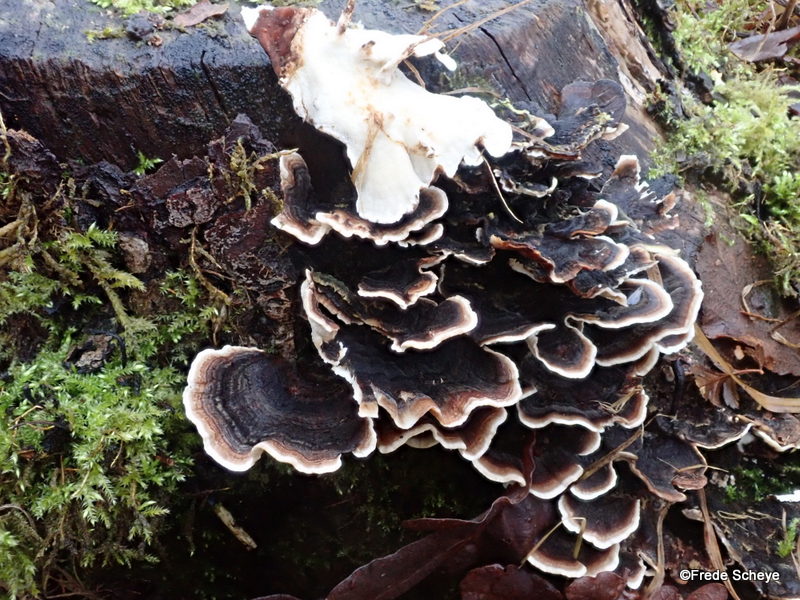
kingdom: Fungi
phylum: Basidiomycota
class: Agaricomycetes
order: Polyporales
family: Polyporaceae
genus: Trametes
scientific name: Trametes versicolor
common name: broget læderporesvamp
